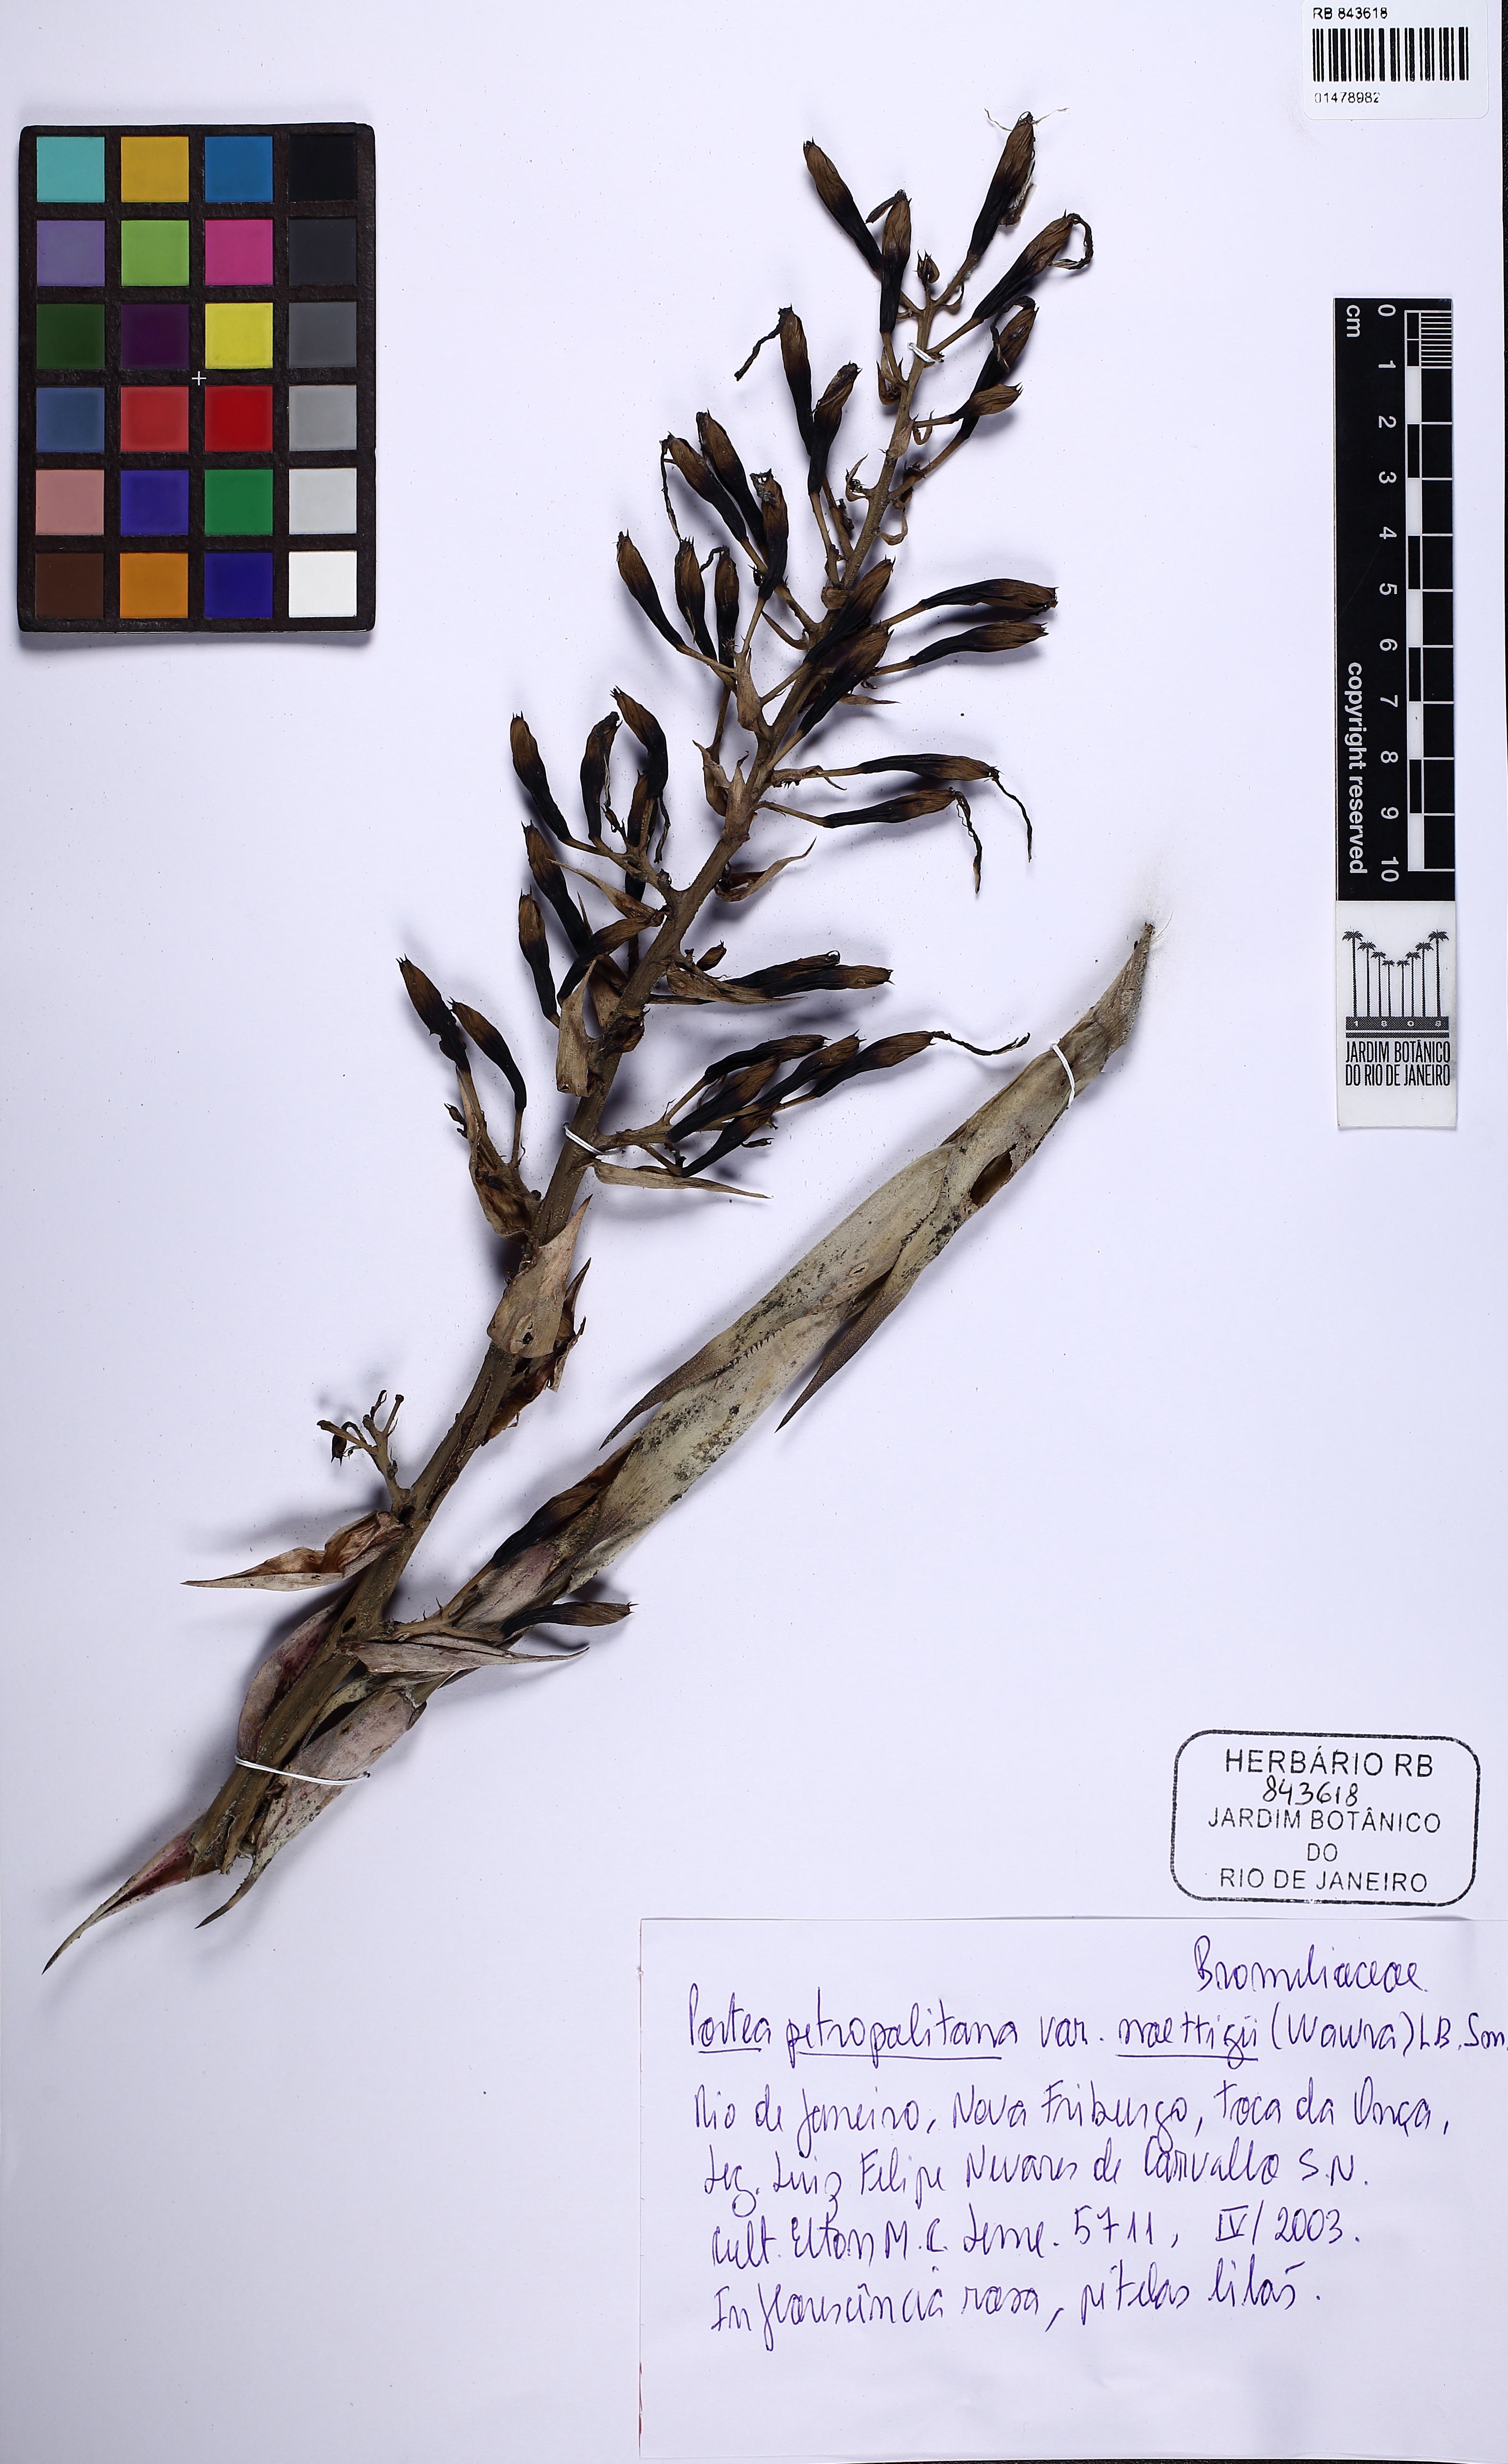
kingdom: Plantae
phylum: Tracheophyta
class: Liliopsida
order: Poales
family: Bromeliaceae
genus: Portea
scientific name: Portea petropolitana
